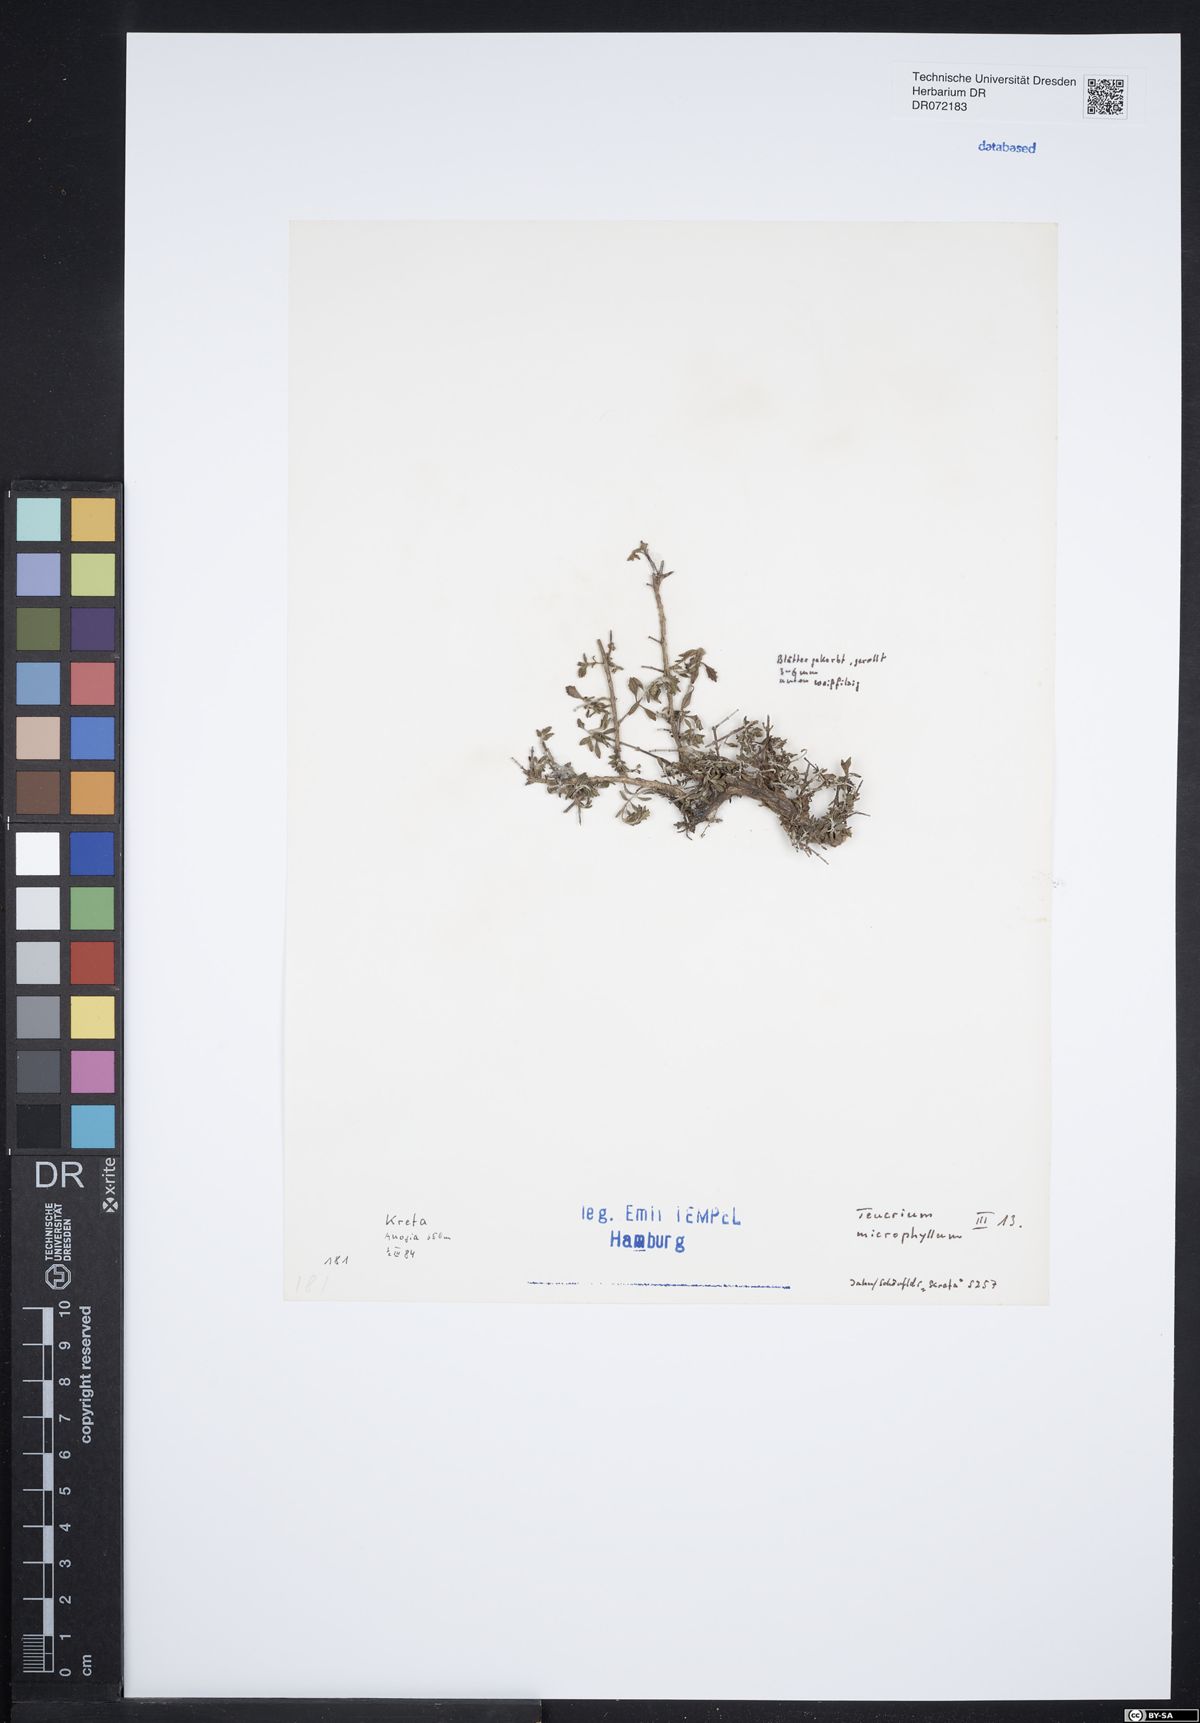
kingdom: Plantae
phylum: Tracheophyta
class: Magnoliopsida
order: Lamiales
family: Lamiaceae
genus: Teucrium
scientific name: Teucrium microphyllum
